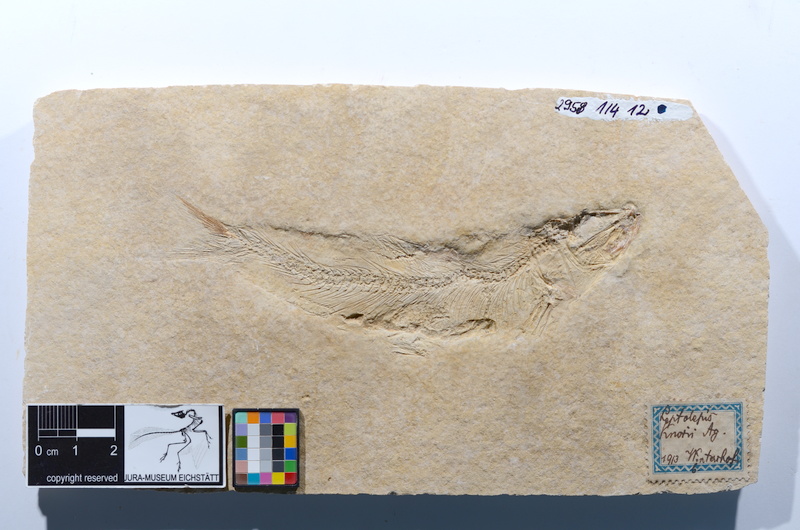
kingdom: Animalia
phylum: Chordata
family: Ascalaboidae
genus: Tharsis
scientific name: Tharsis dubius
